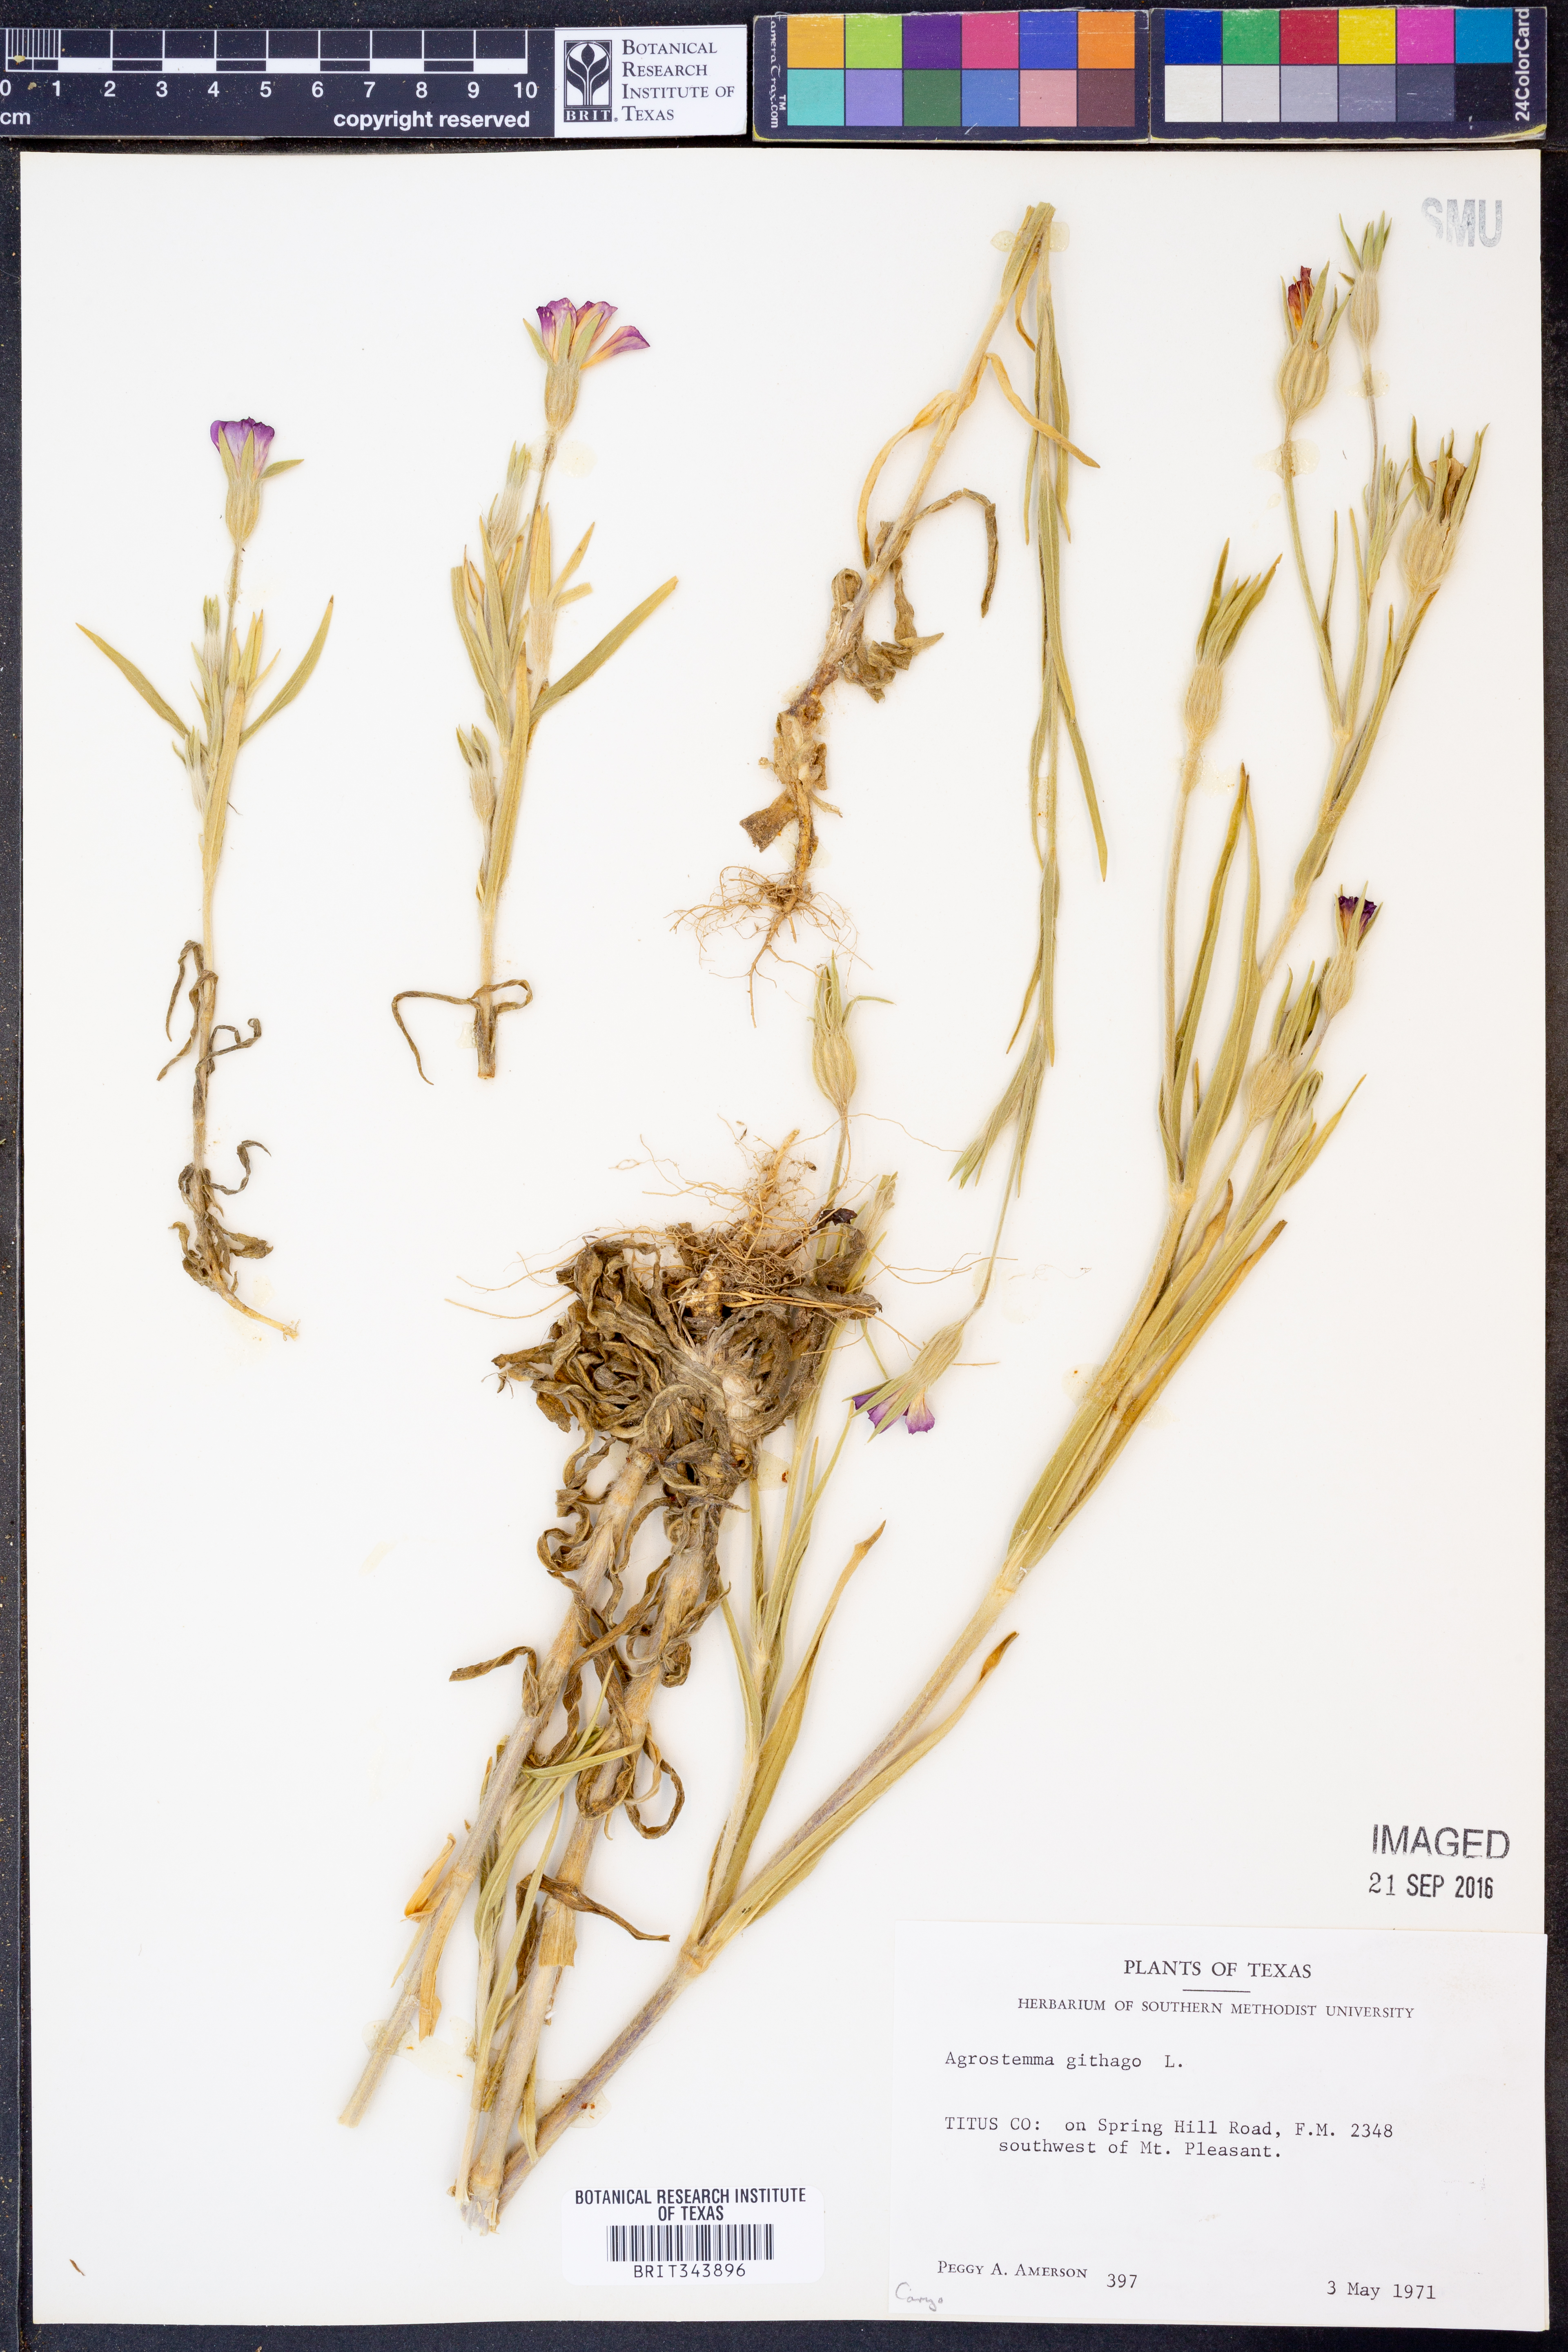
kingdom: Plantae
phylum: Tracheophyta
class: Magnoliopsida
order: Caryophyllales
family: Caryophyllaceae
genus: Agrostemma
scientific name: Agrostemma githago
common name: Common corncockle
